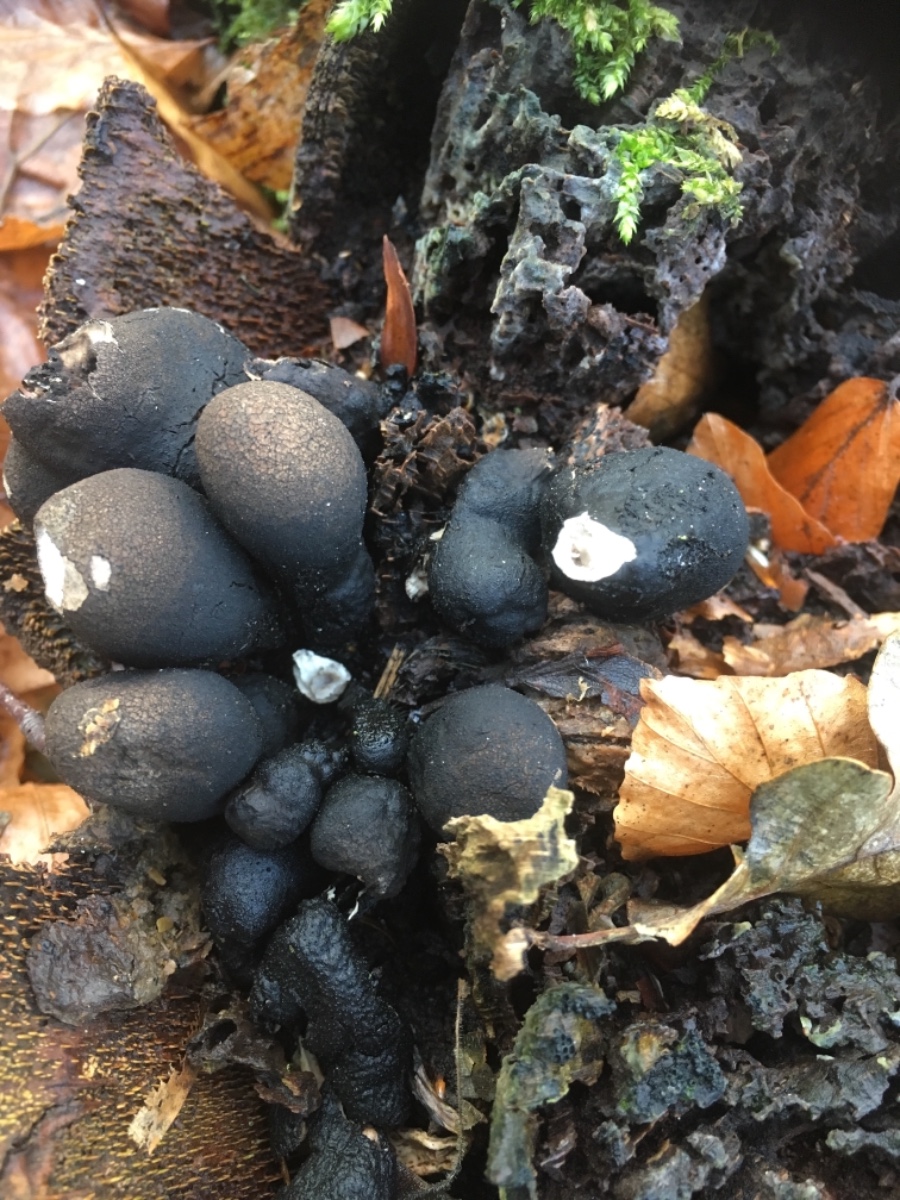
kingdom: Fungi
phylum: Ascomycota
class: Sordariomycetes
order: Xylariales
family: Xylariaceae
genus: Xylaria
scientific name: Xylaria polymorpha
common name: kølle-stødsvamp
